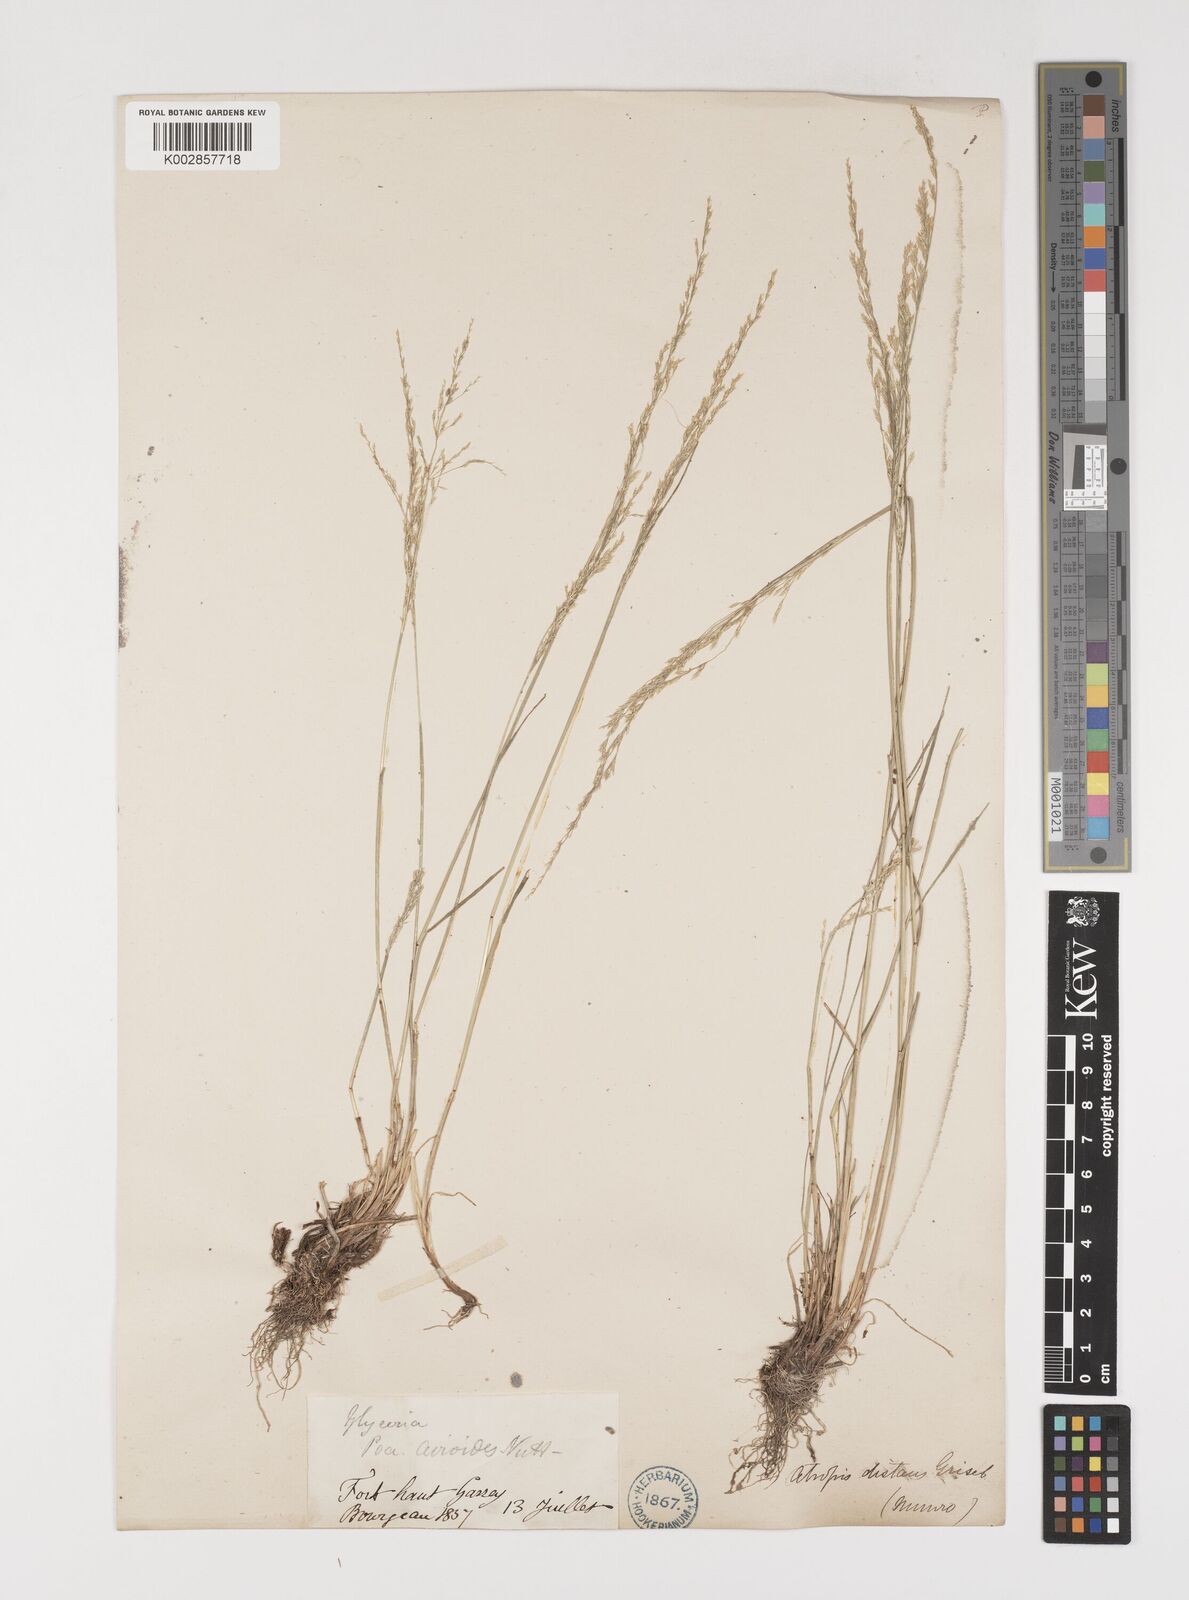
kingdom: Plantae
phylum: Tracheophyta
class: Liliopsida
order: Poales
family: Poaceae
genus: Puccinellia
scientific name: Puccinellia nuttalliana
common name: Nuttall's alkali grass
